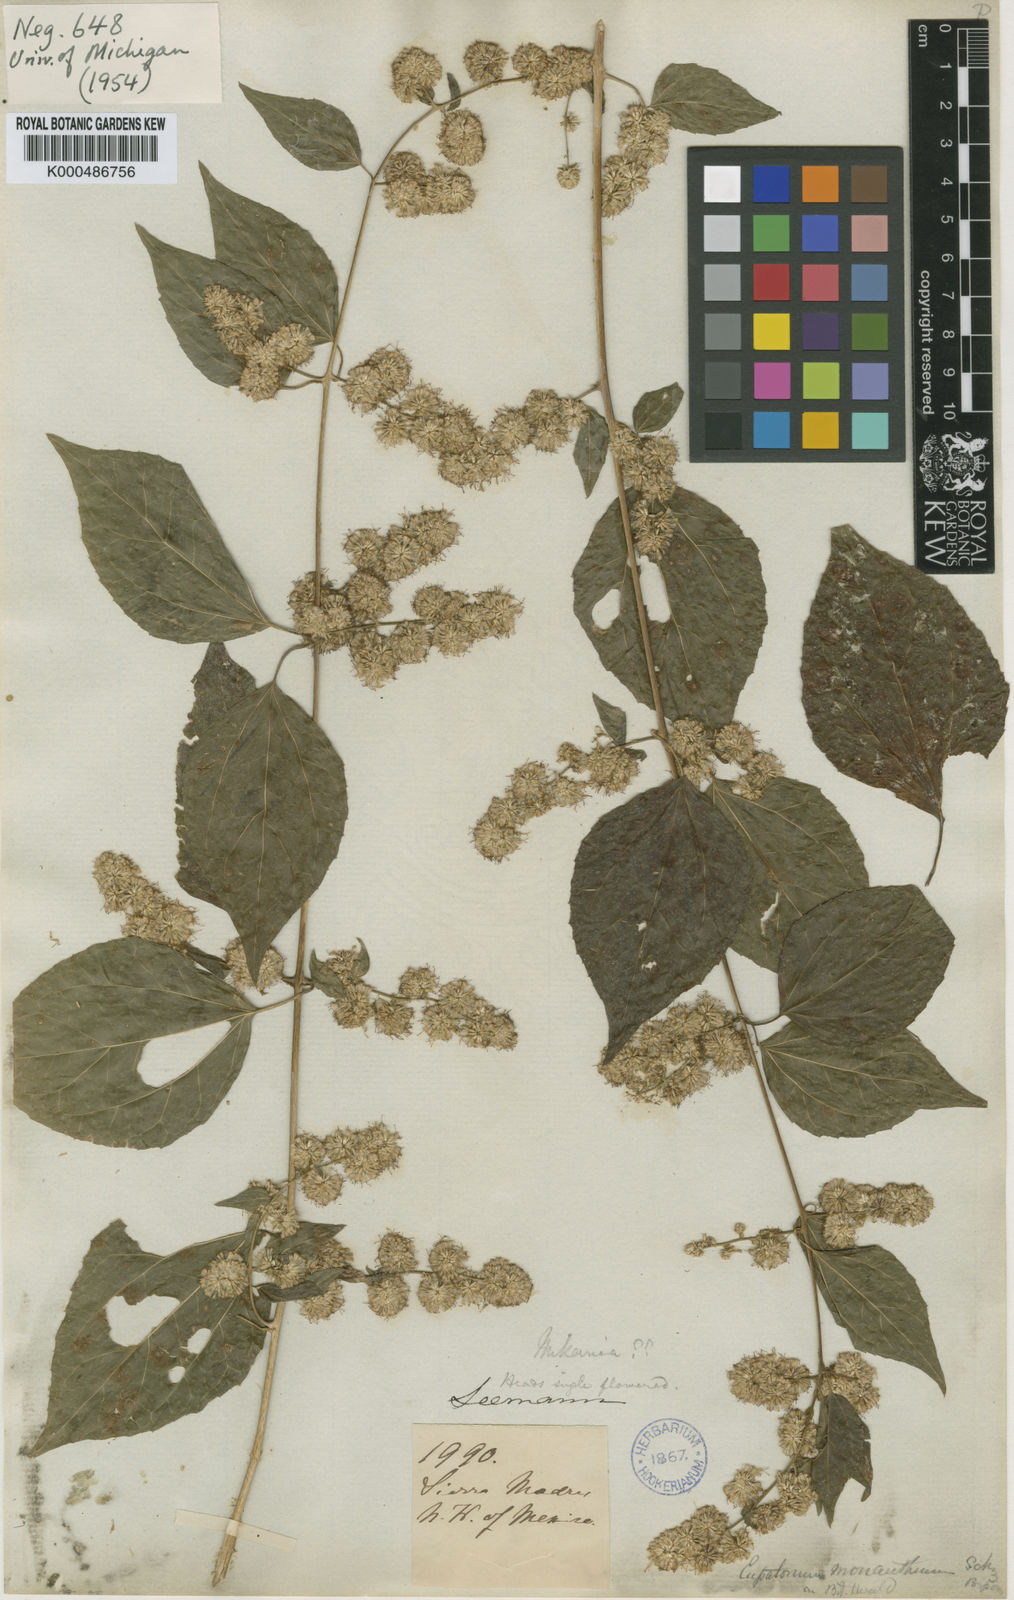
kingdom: Plantae
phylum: Tracheophyta
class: Magnoliopsida
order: Asterales
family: Asteraceae
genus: Koanophyllon
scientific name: Koanophyllon monanthum
